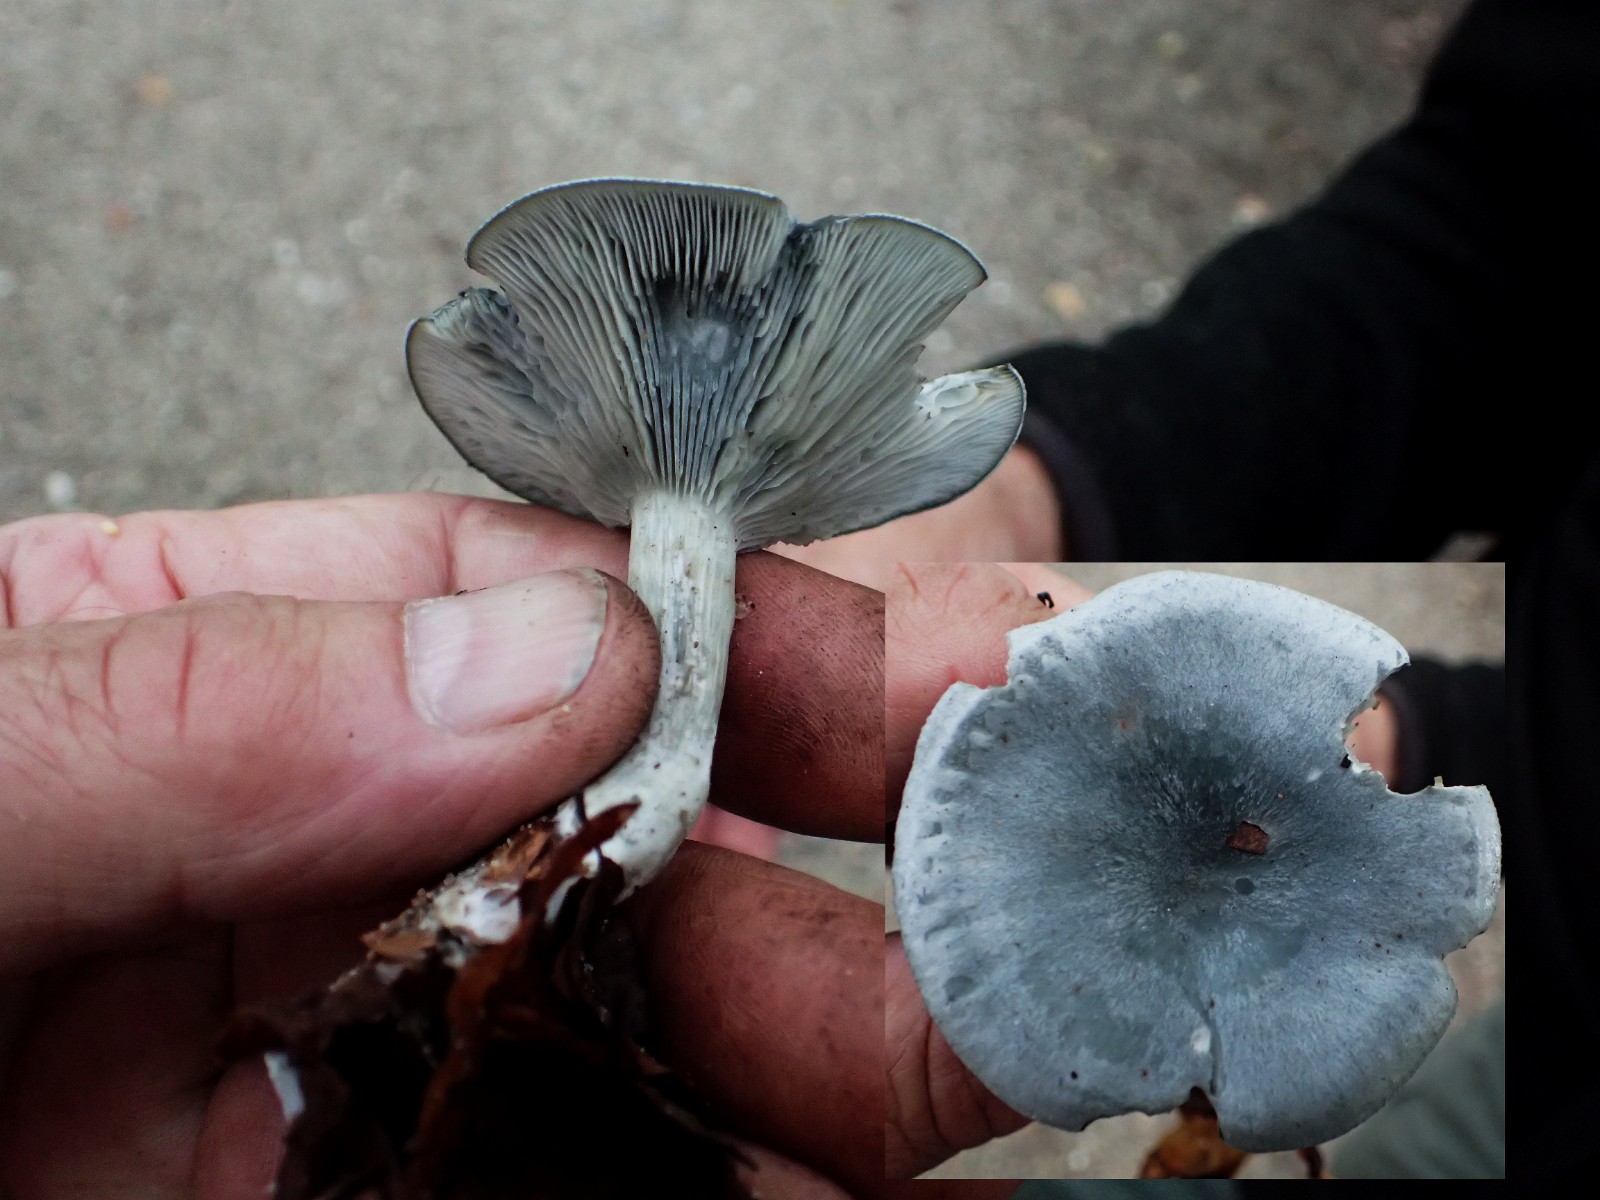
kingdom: Fungi
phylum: Basidiomycota
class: Agaricomycetes
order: Agaricales
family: Tricholomataceae
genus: Clitocybe
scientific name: Clitocybe odora
